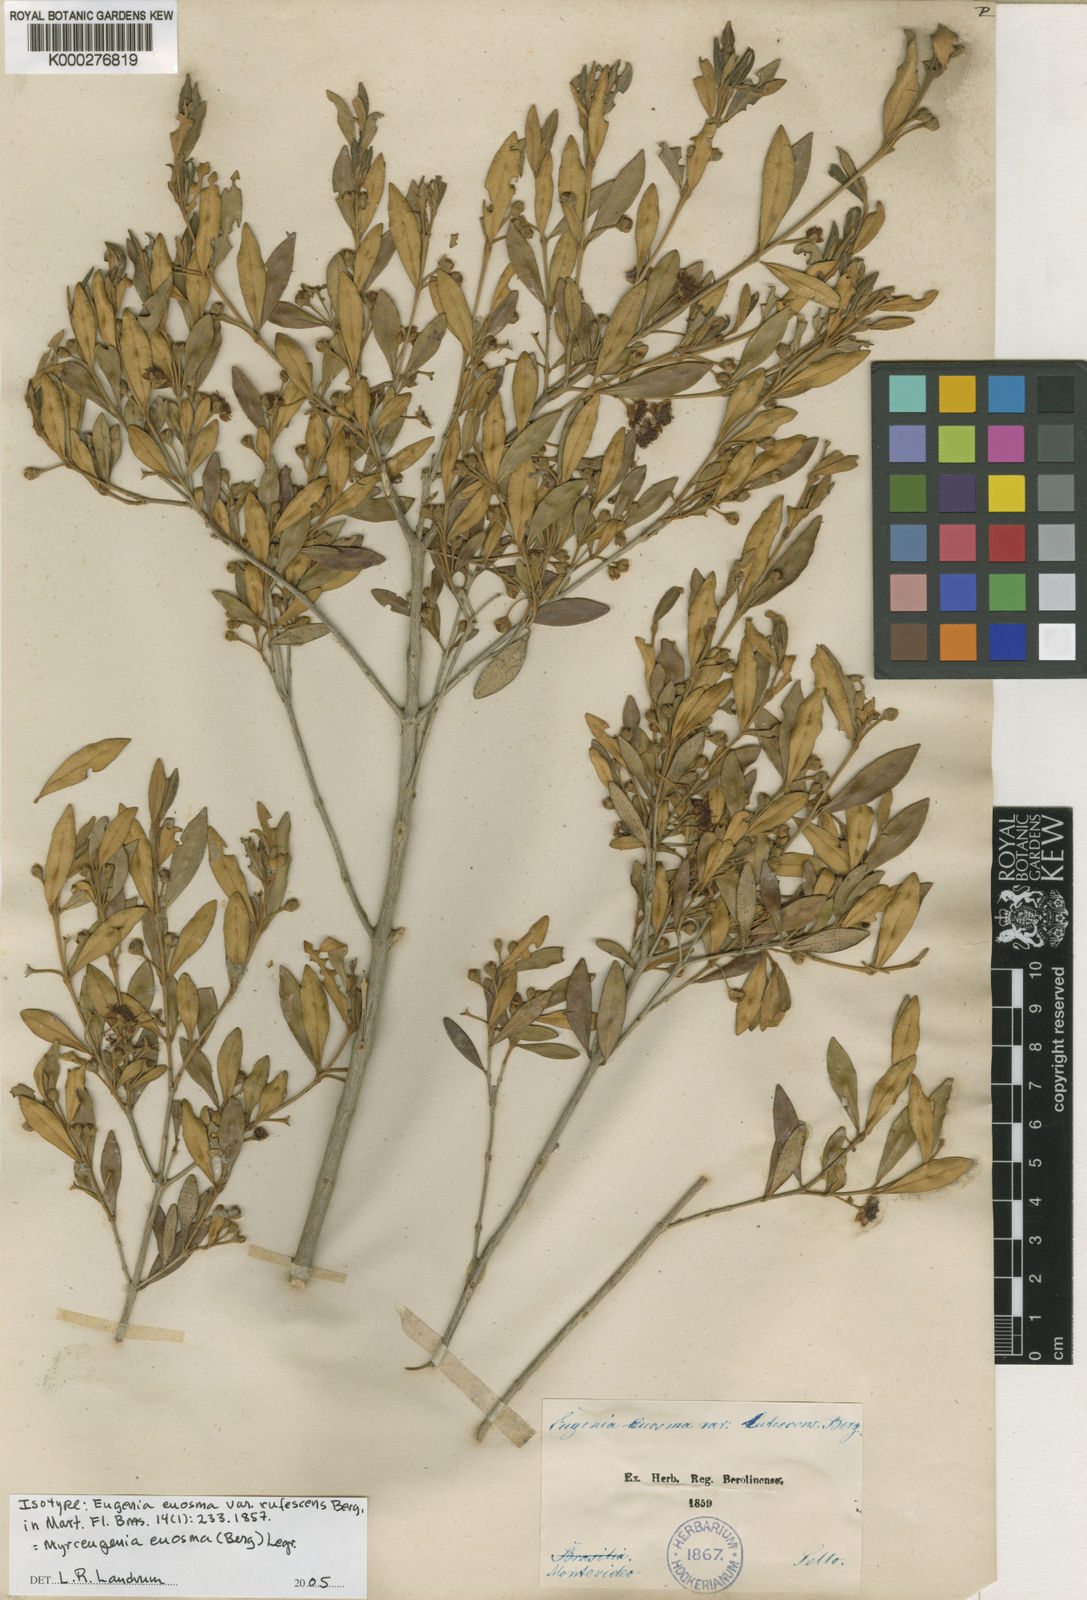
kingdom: Plantae
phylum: Tracheophyta
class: Magnoliopsida
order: Myrtales
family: Myrtaceae
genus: Myrceugenia
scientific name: Myrceugenia euosma
